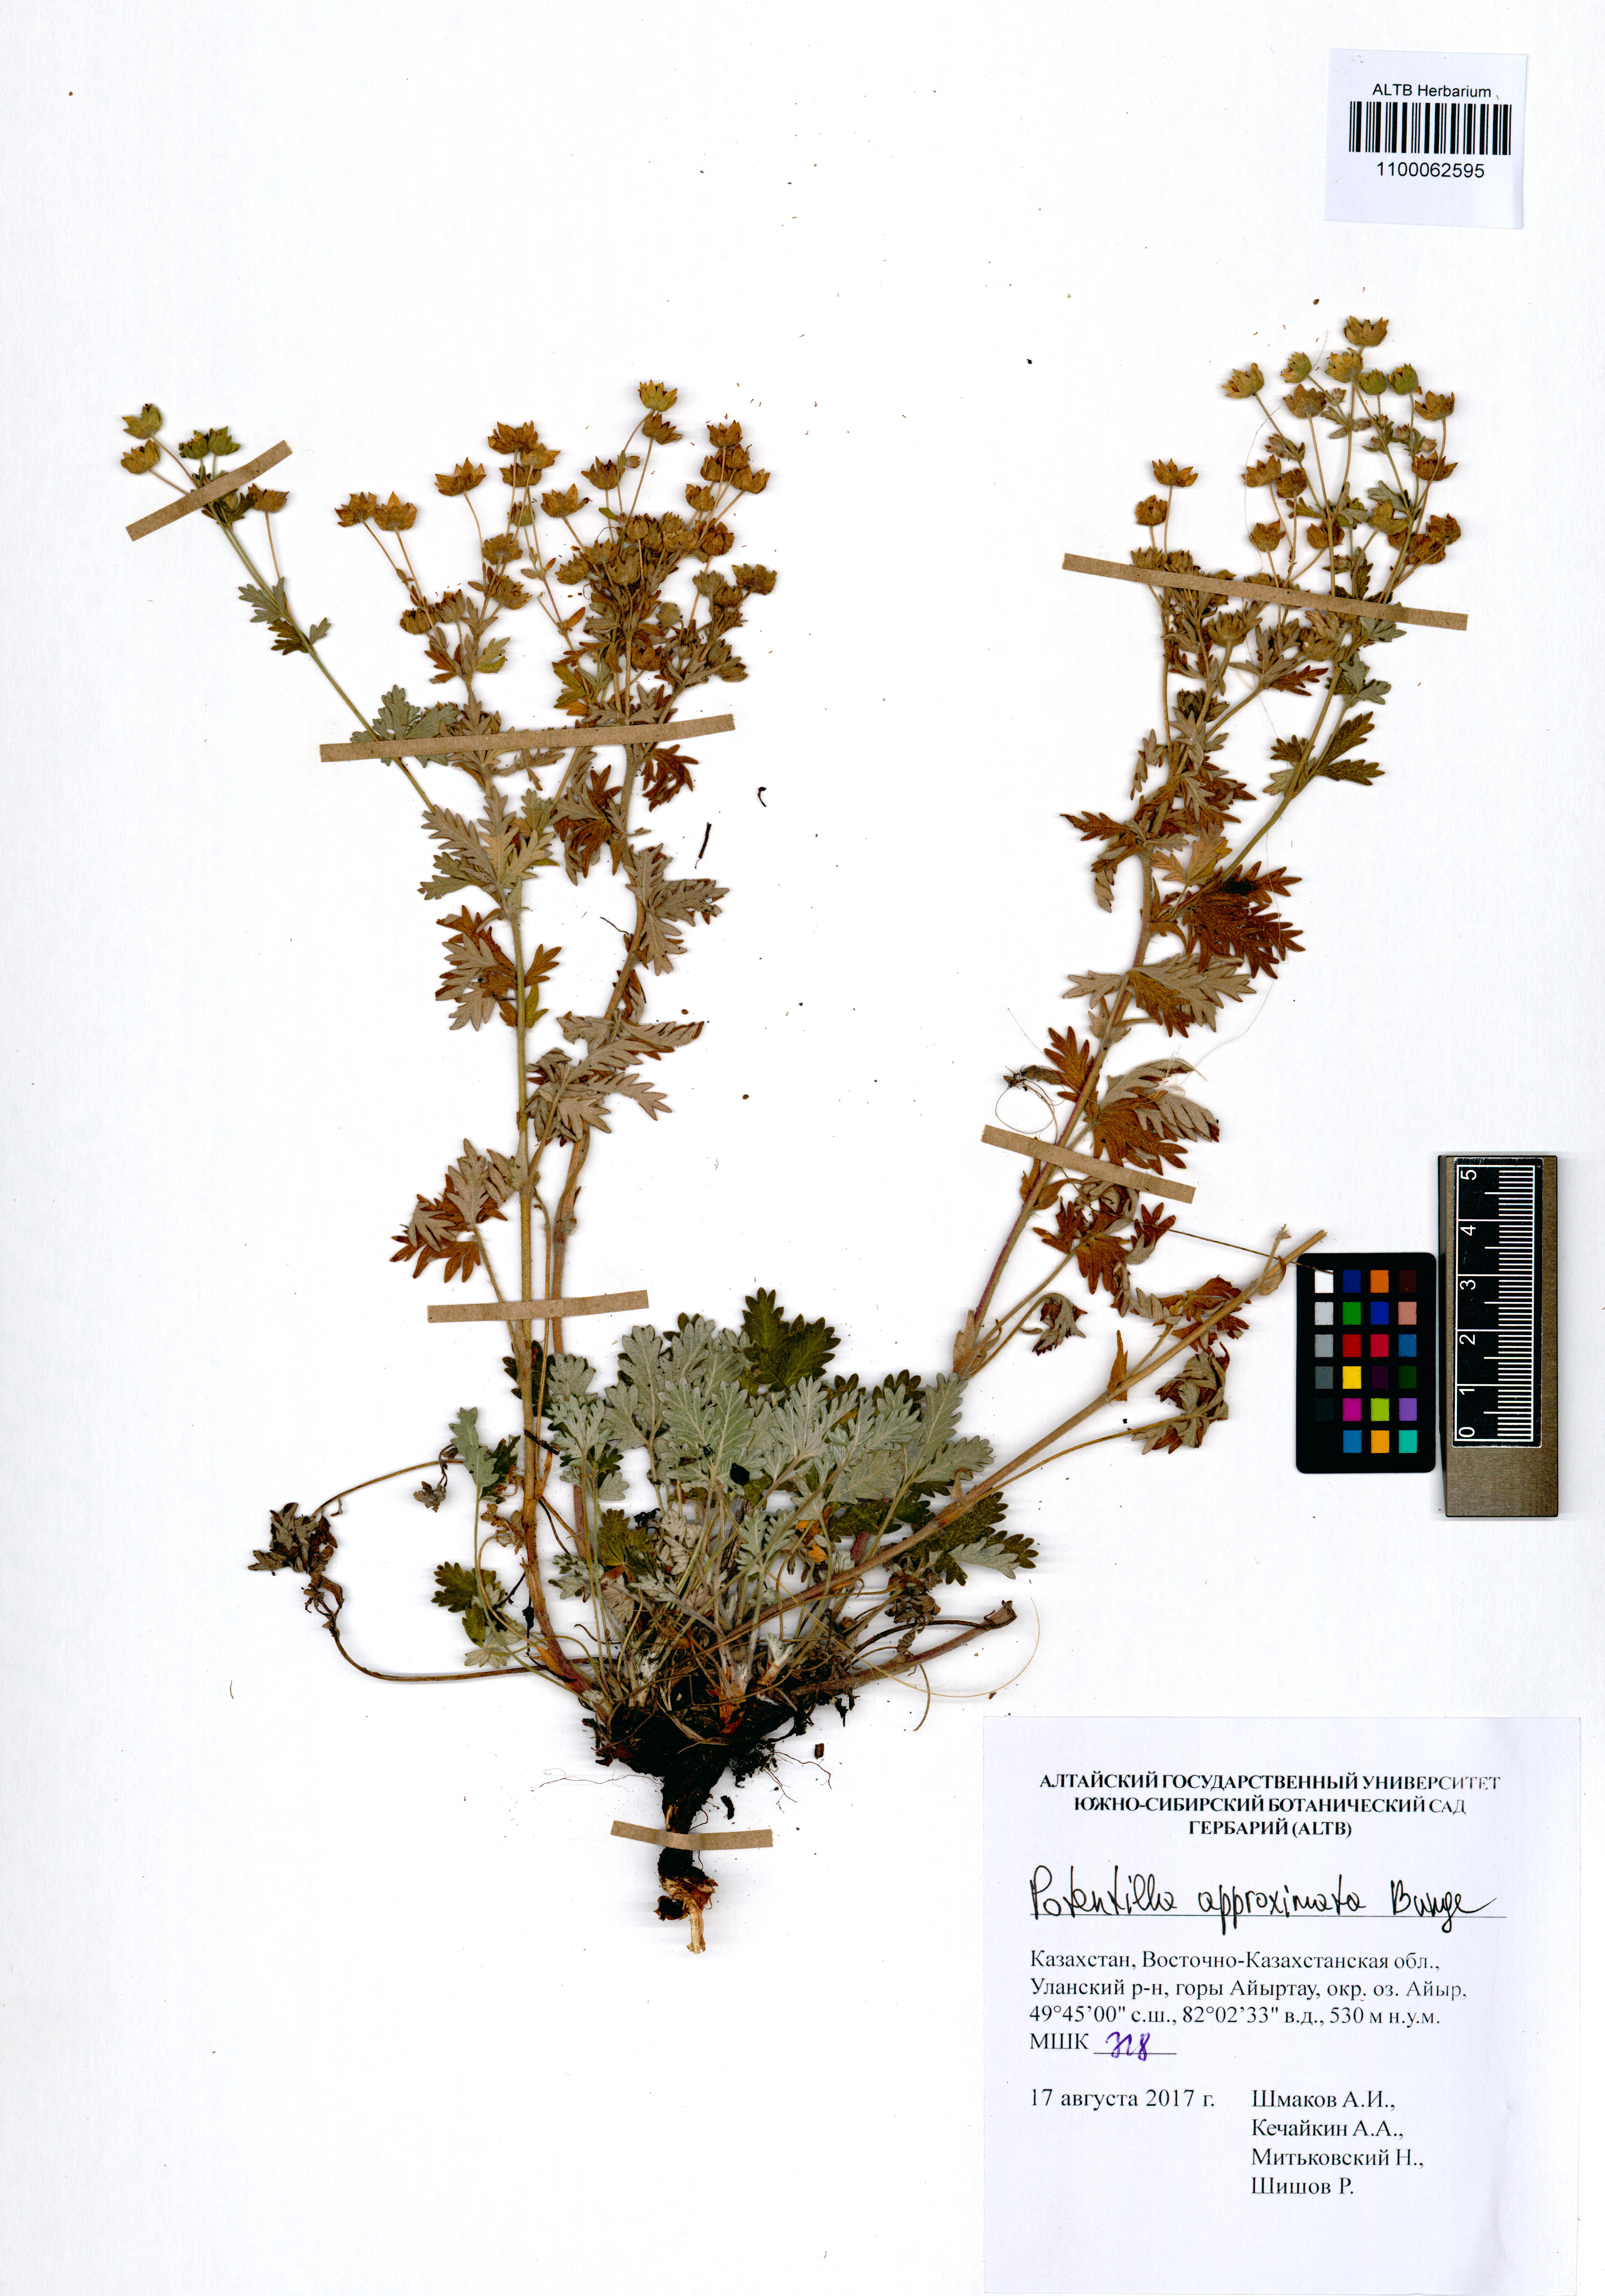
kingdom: Plantae
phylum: Tracheophyta
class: Magnoliopsida
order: Rosales
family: Rosaceae
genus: Potentilla
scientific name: Potentilla conferta
